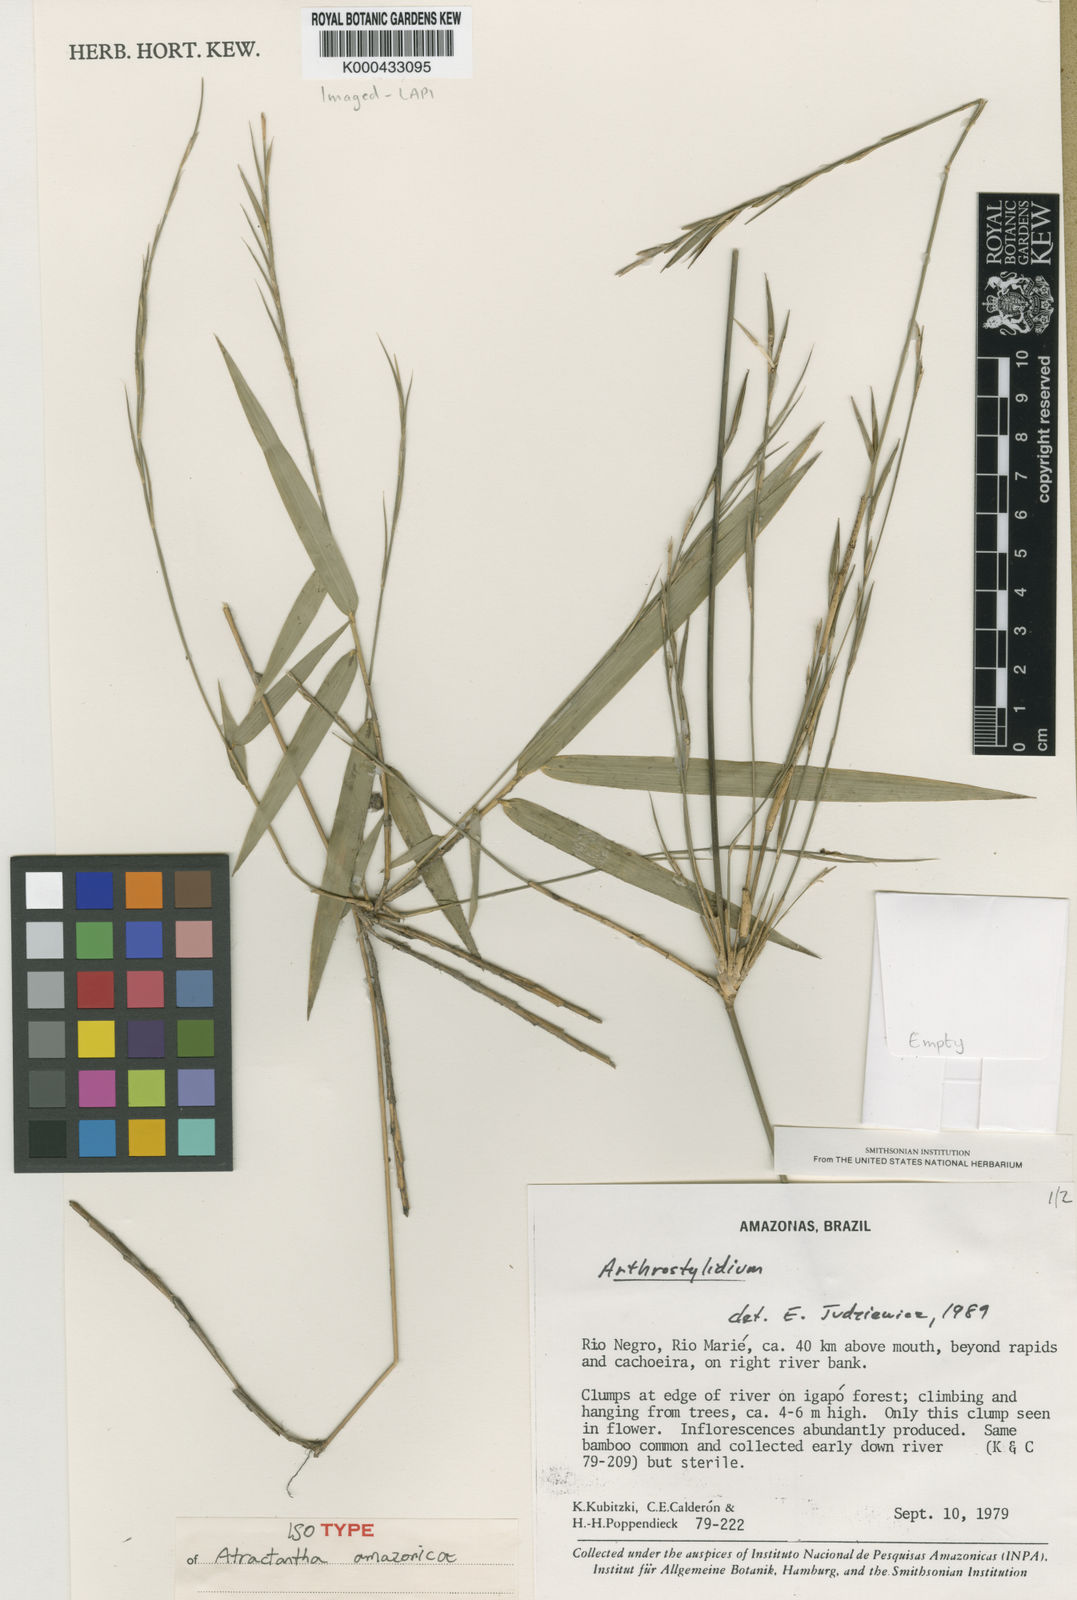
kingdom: Plantae
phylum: Tracheophyta
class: Liliopsida
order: Poales
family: Poaceae
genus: Atractantha
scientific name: Atractantha amazonica
